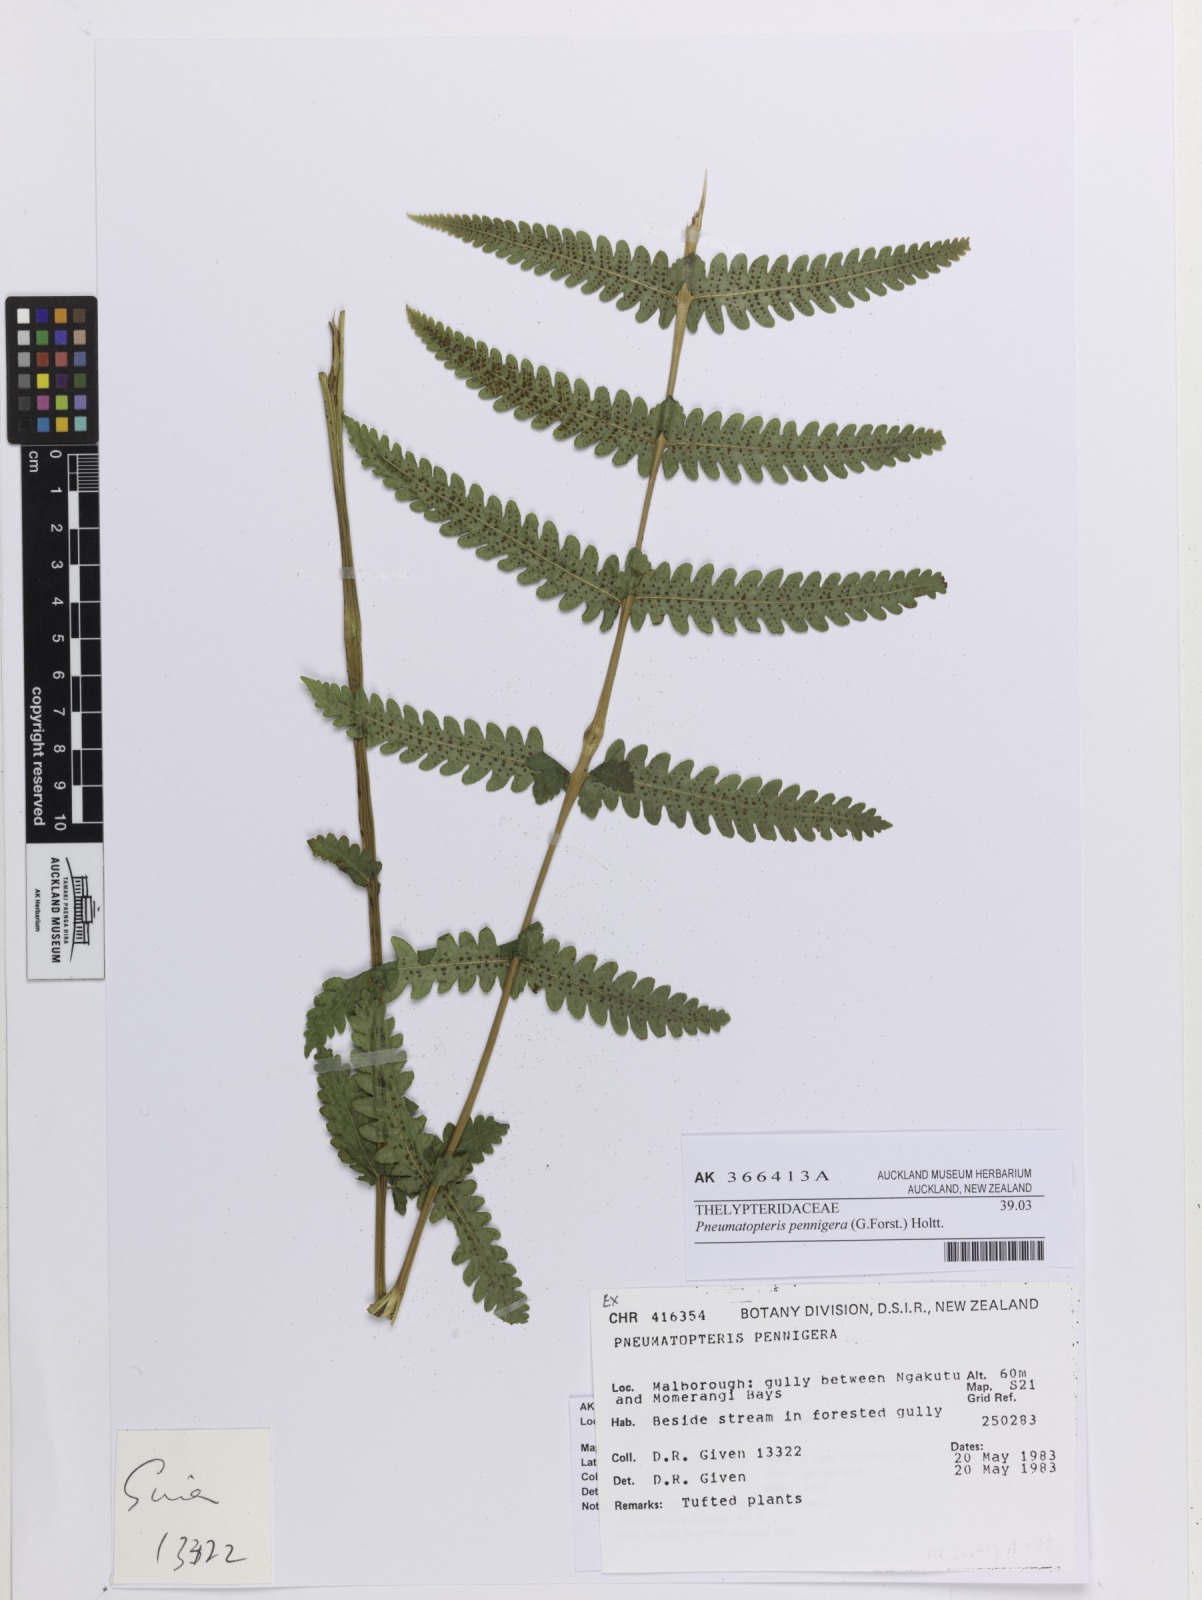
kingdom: Plantae
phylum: Tracheophyta
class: Polypodiopsida
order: Polypodiales
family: Thelypteridaceae
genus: Pakau
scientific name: Pakau pennigera
